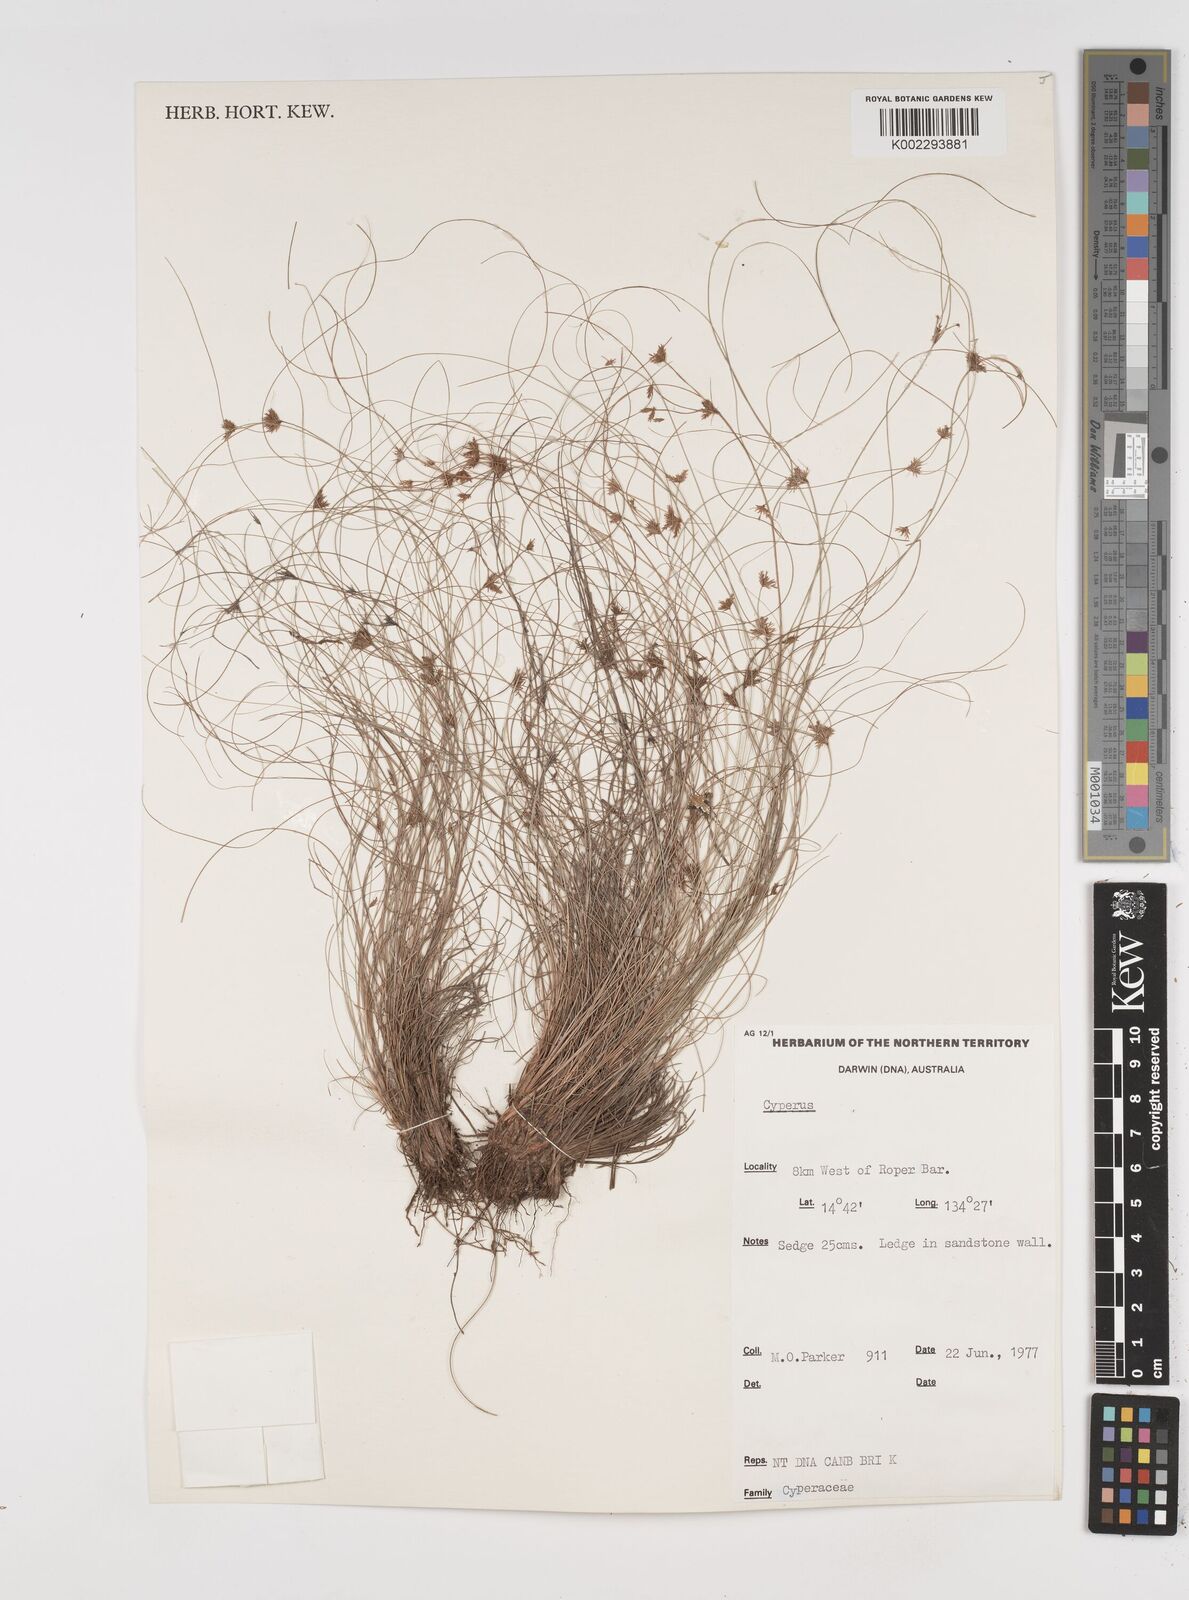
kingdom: Plantae
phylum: Tracheophyta
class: Liliopsida
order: Poales
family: Cyperaceae
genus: Cyperus
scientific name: Cyperus
